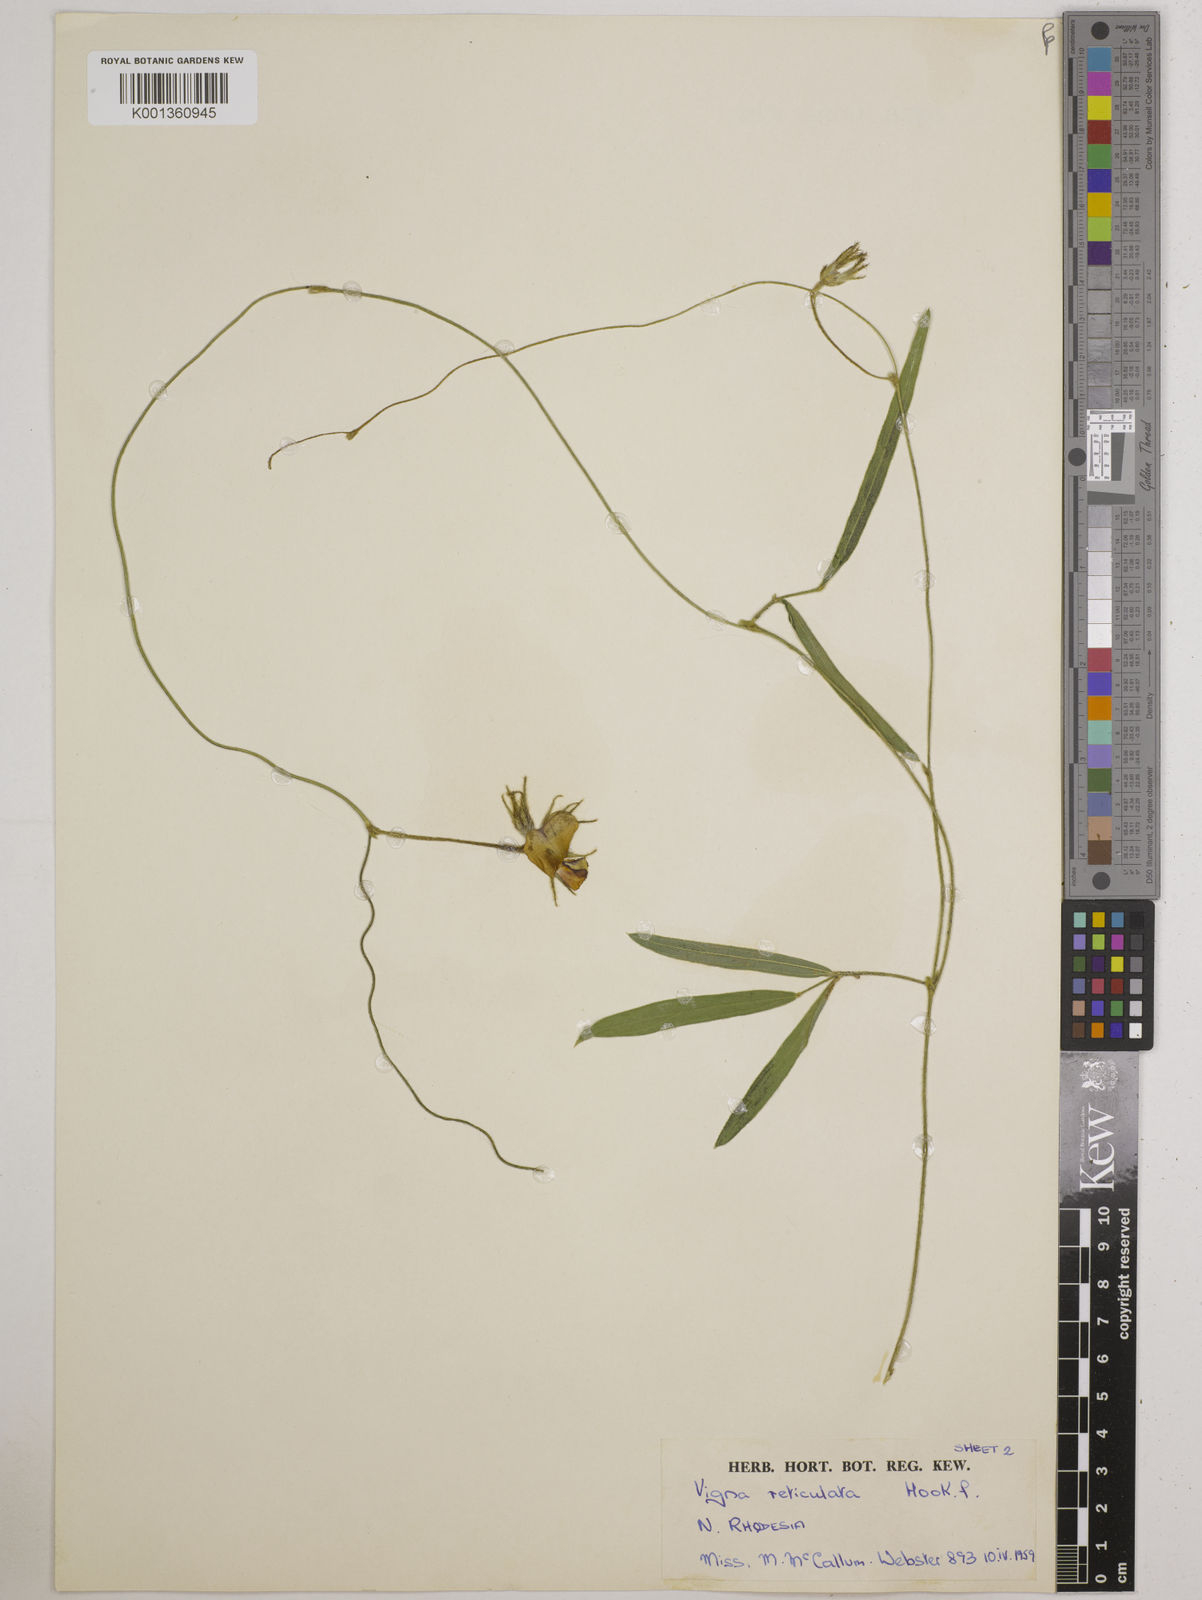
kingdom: Plantae
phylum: Tracheophyta
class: Magnoliopsida
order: Fabales
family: Fabaceae
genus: Vigna
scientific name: Vigna reticulata
